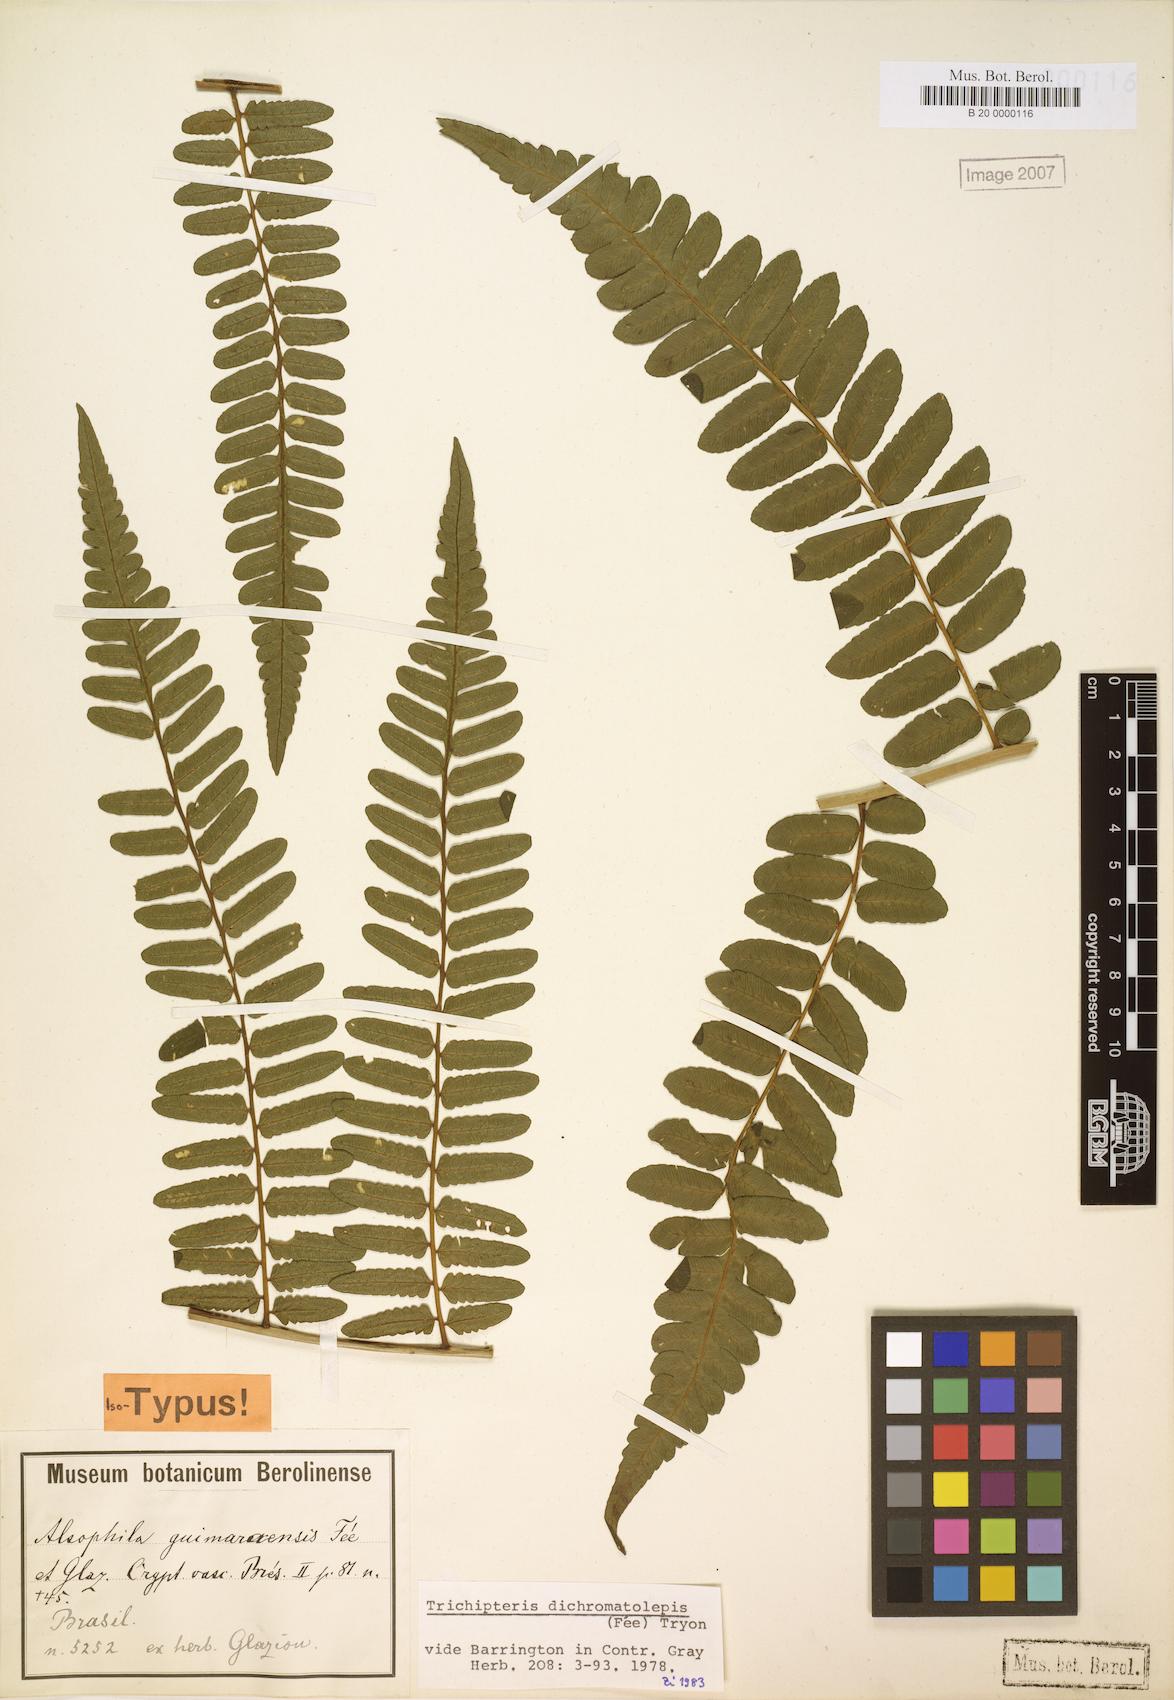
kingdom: Plantae
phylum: Tracheophyta
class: Polypodiopsida
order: Cyatheales
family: Cyatheaceae
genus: Cyathea
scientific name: Cyathea dichromatolepis
